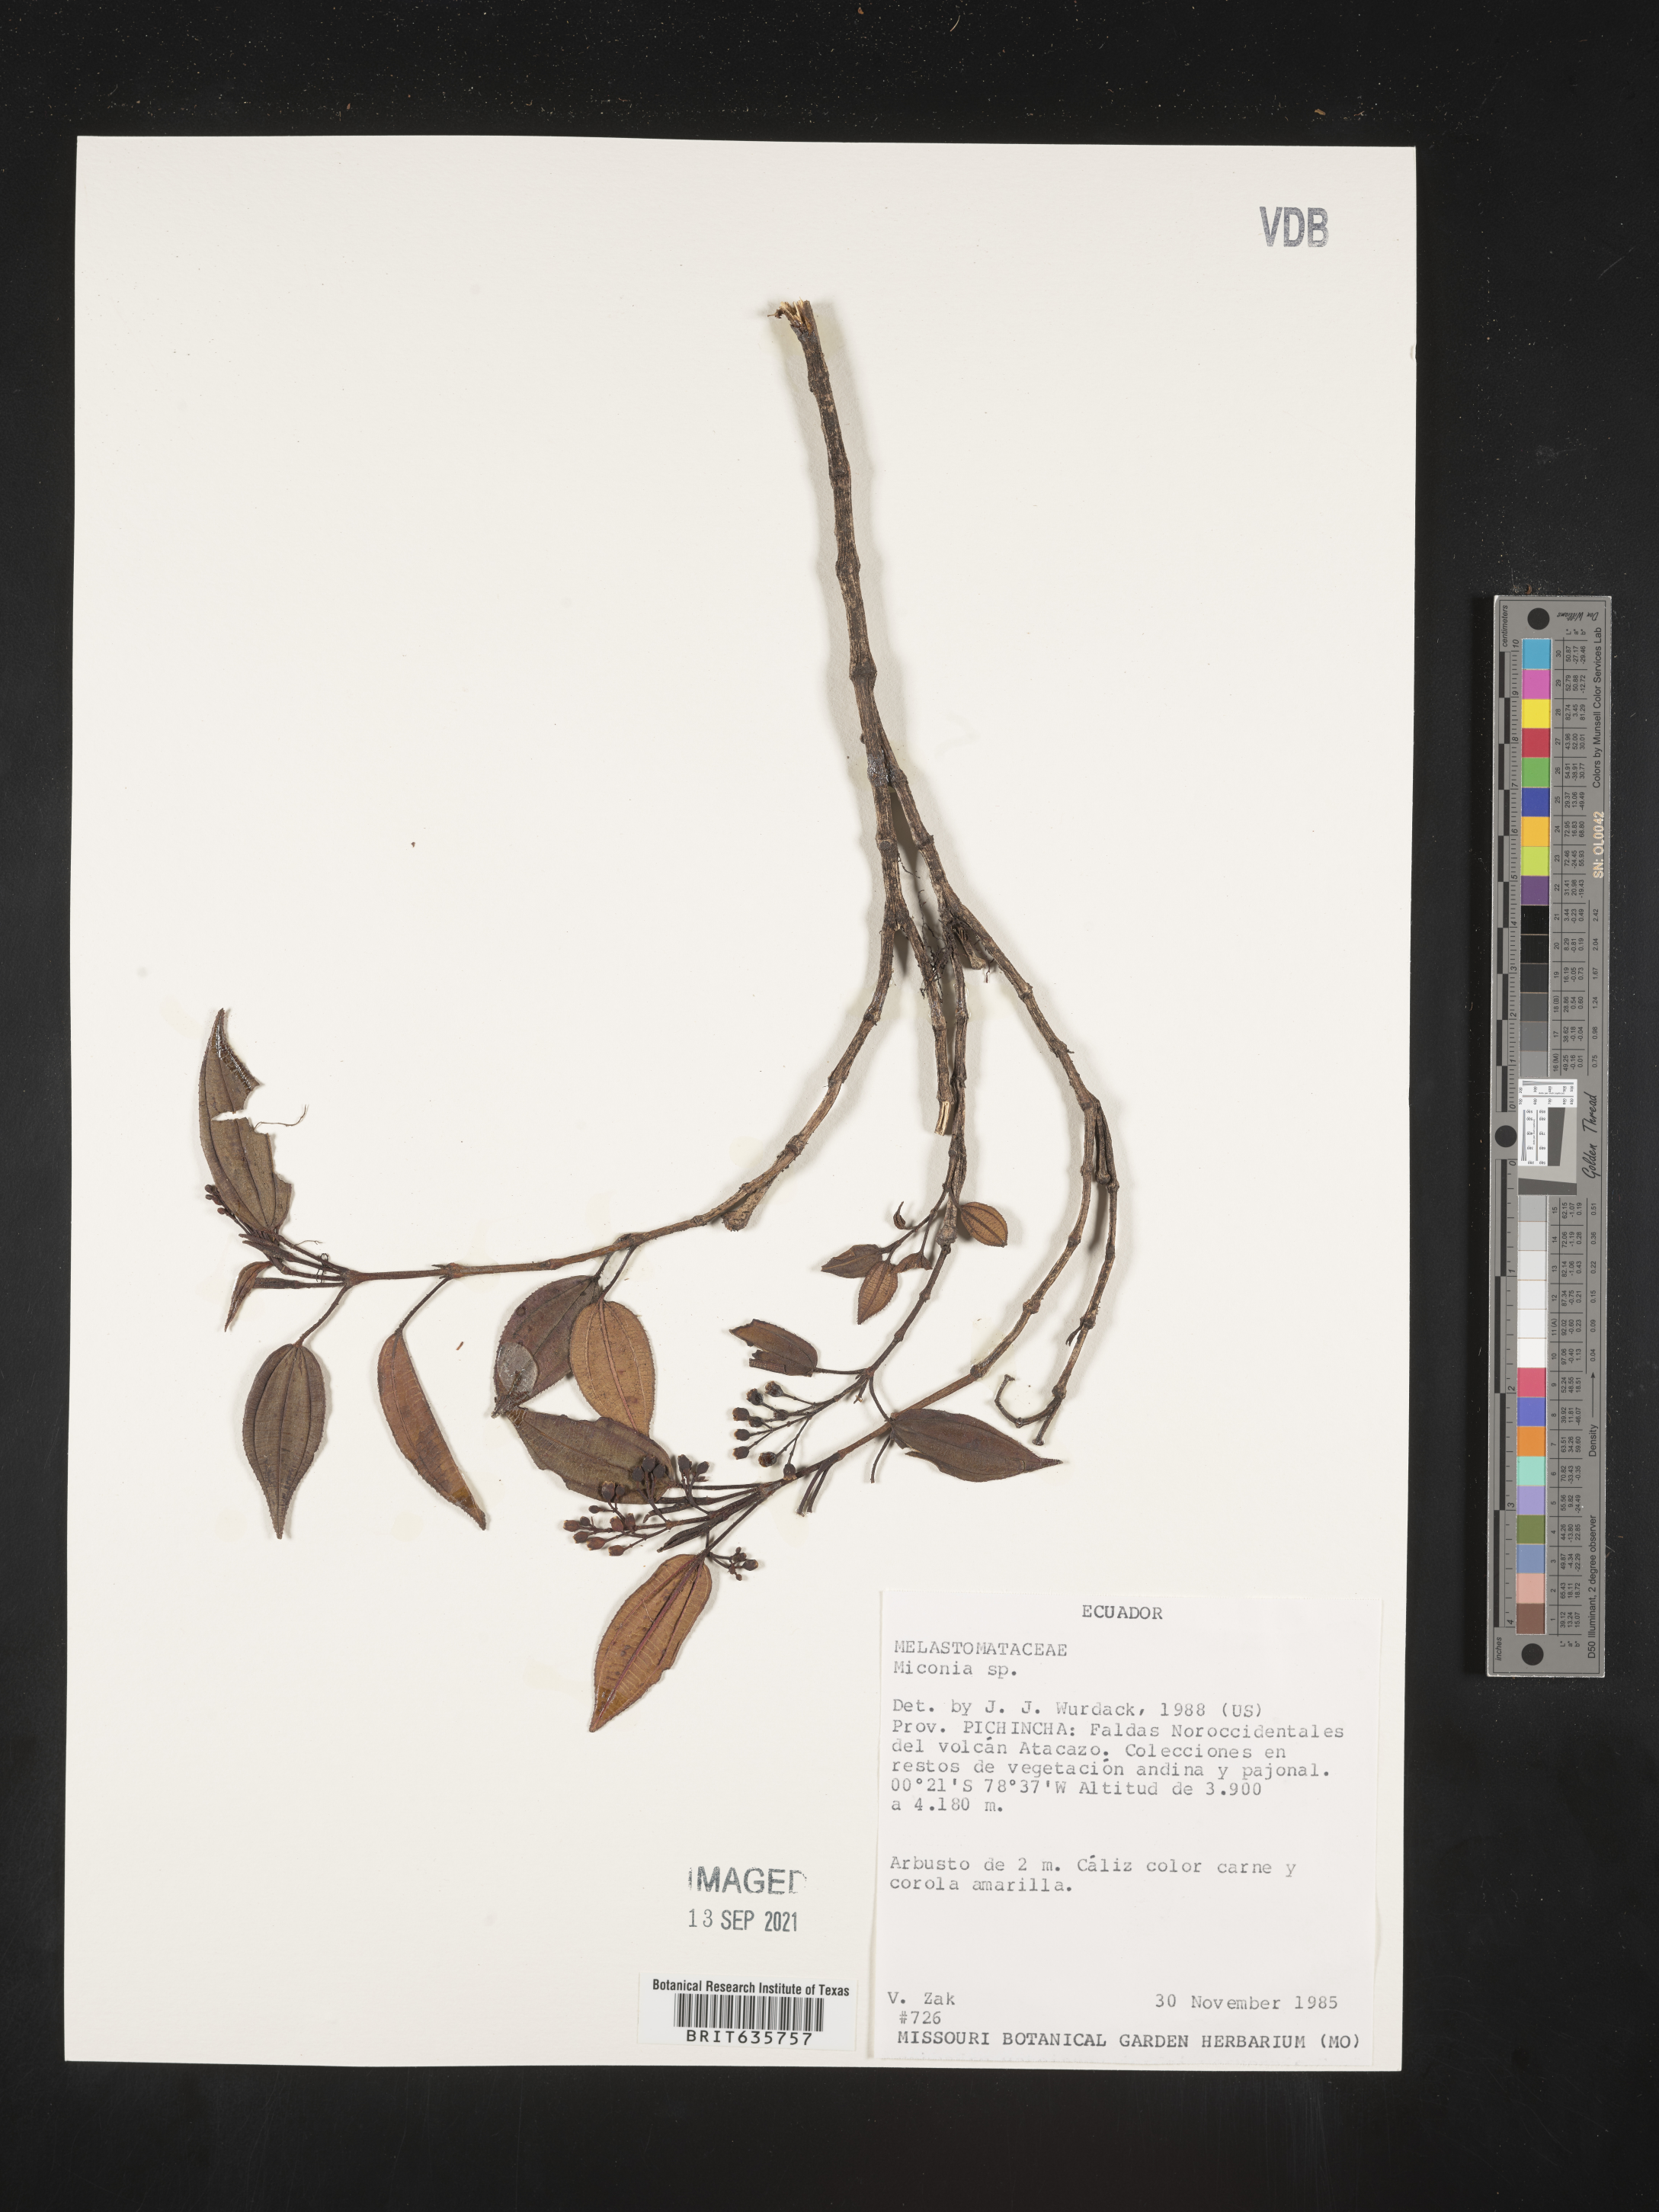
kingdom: Plantae
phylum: Tracheophyta
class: Magnoliopsida
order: Myrtales
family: Melastomataceae
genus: Miconia
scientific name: Miconia
